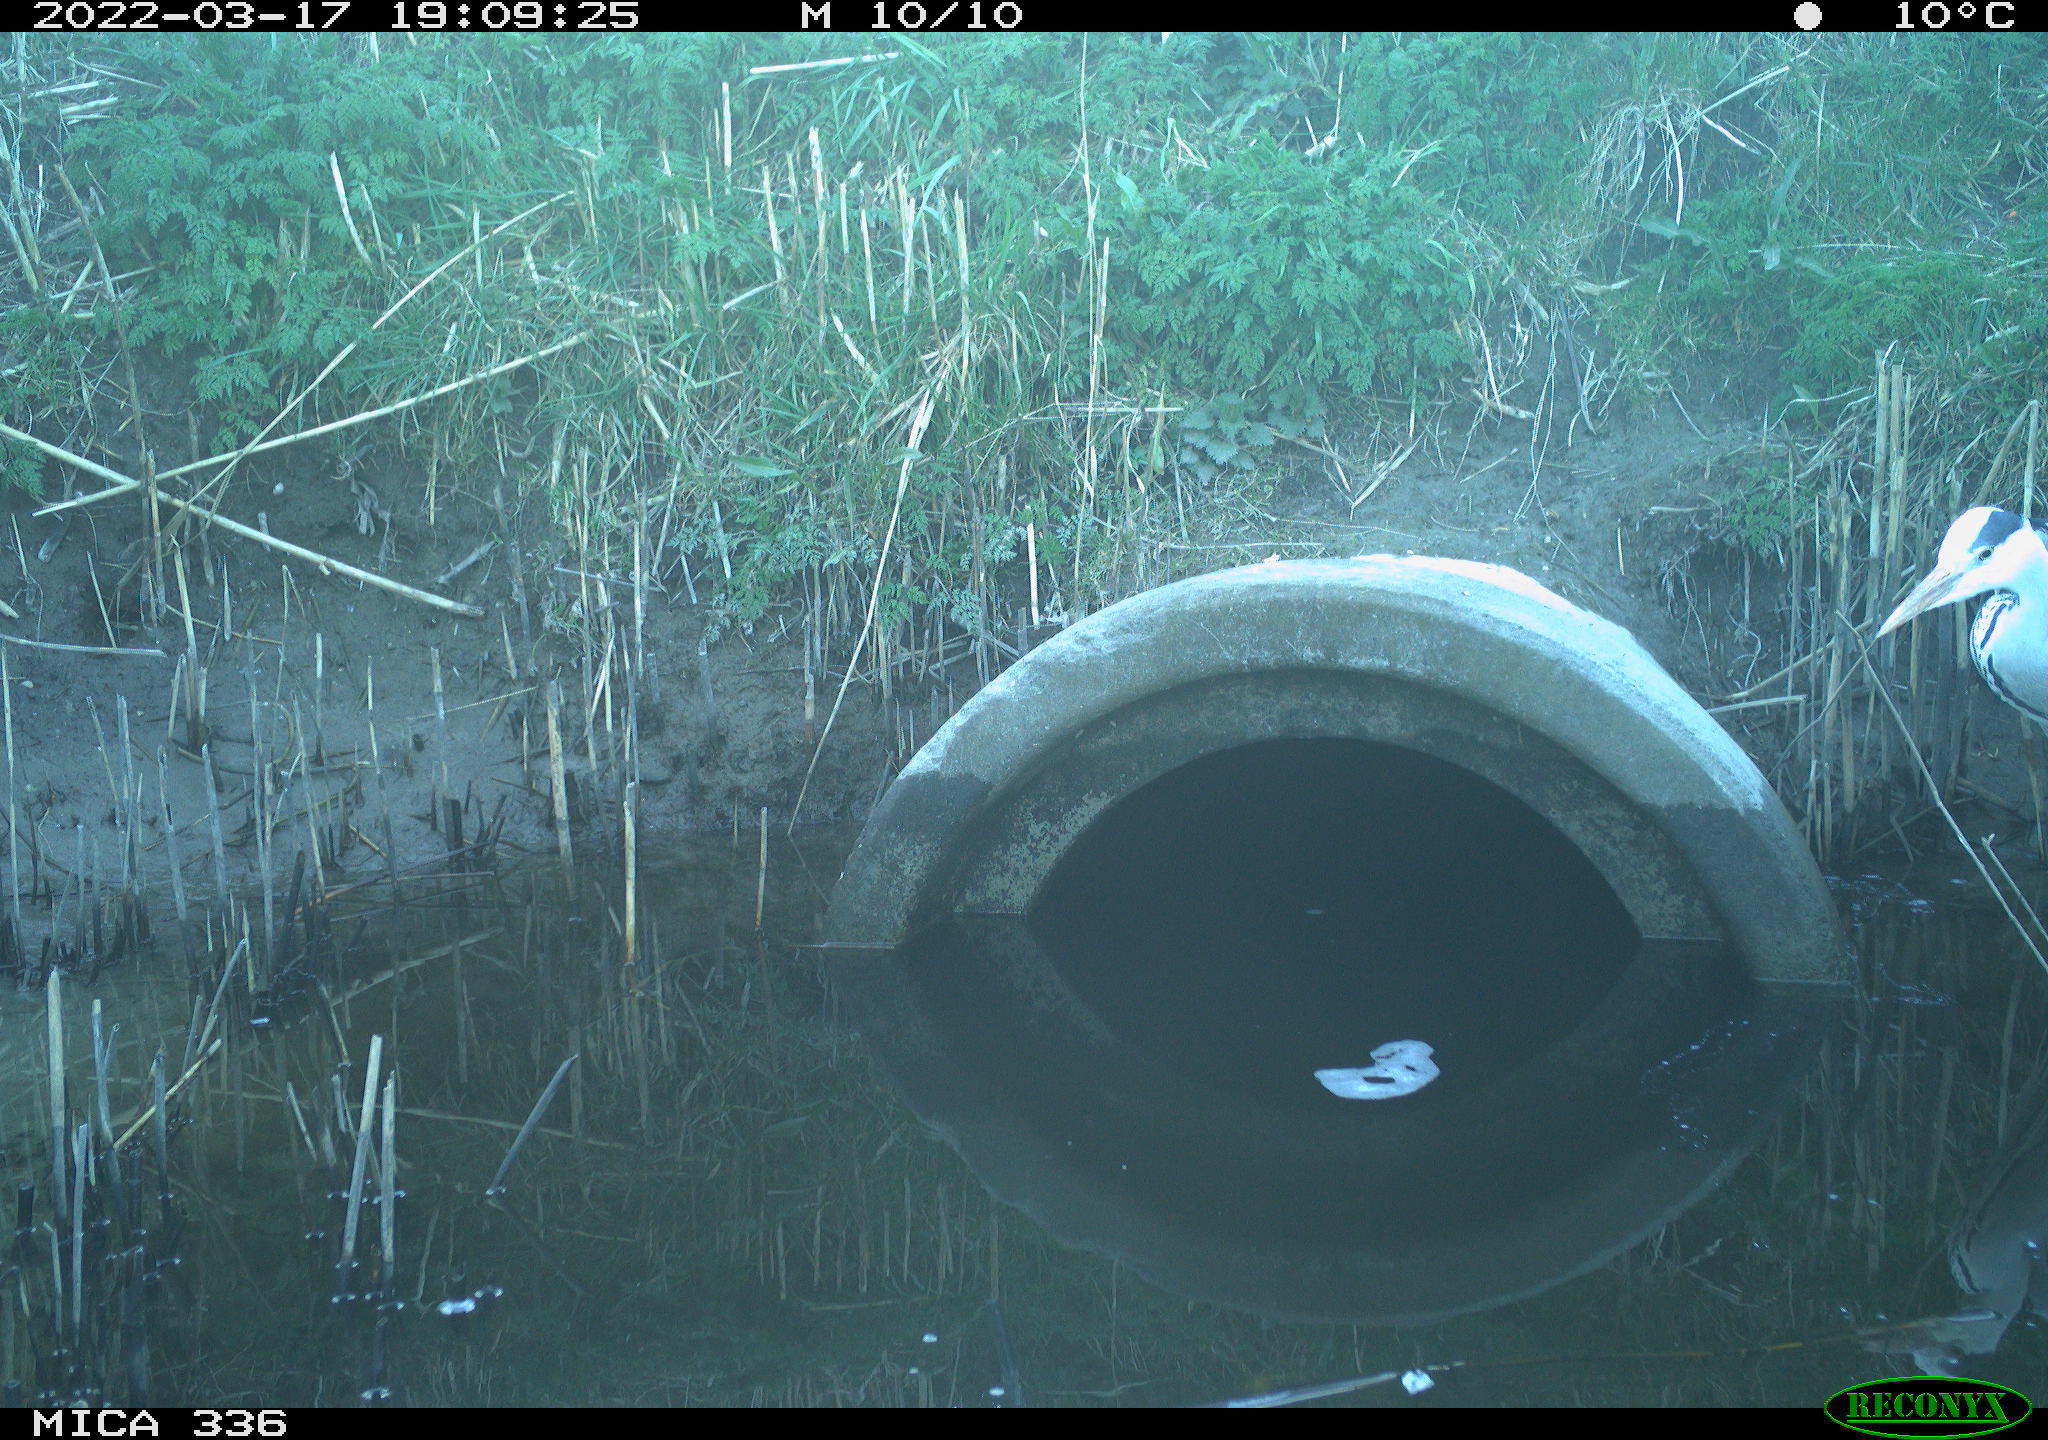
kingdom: Animalia
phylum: Chordata
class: Aves
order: Pelecaniformes
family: Ardeidae
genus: Ardea
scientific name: Ardea cinerea
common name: Grey heron
